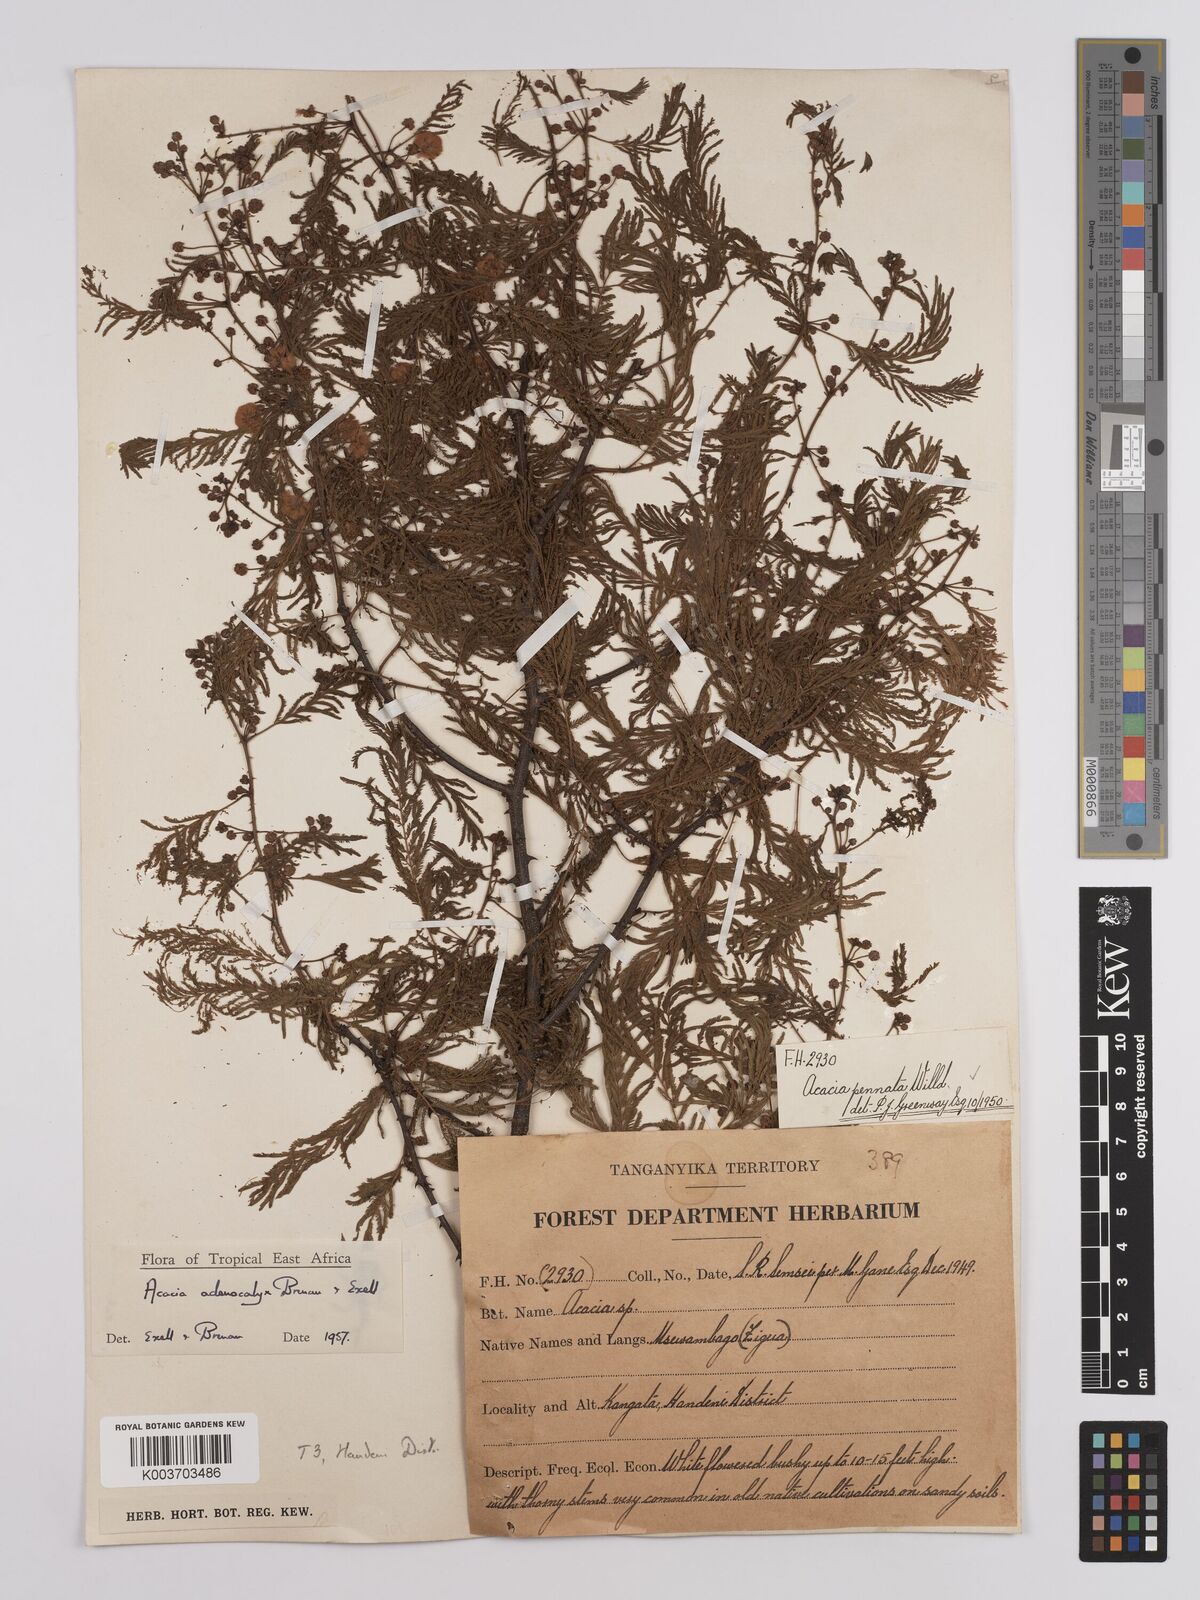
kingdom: Plantae
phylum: Tracheophyta
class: Magnoliopsida
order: Fabales
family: Fabaceae
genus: Senegalia
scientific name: Senegalia adenocalyx
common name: Pfurura
